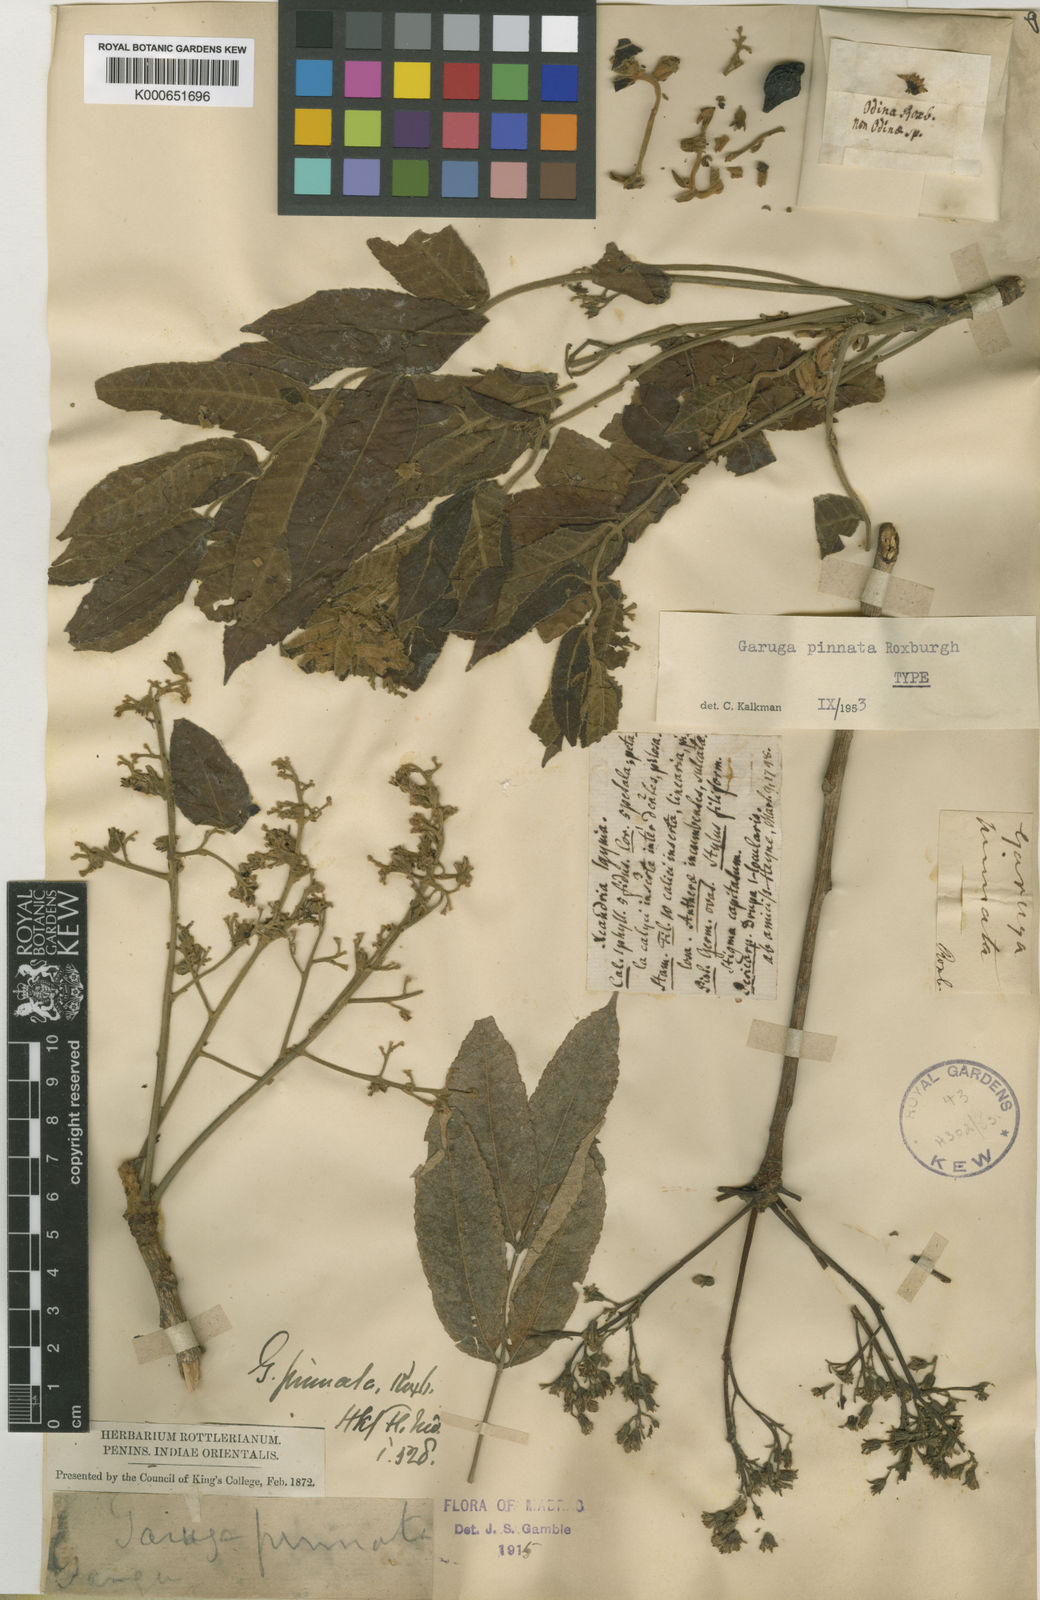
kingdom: Plantae
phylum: Tracheophyta
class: Magnoliopsida
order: Sapindales
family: Burseraceae
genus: Garuga
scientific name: Garuga pinnata
